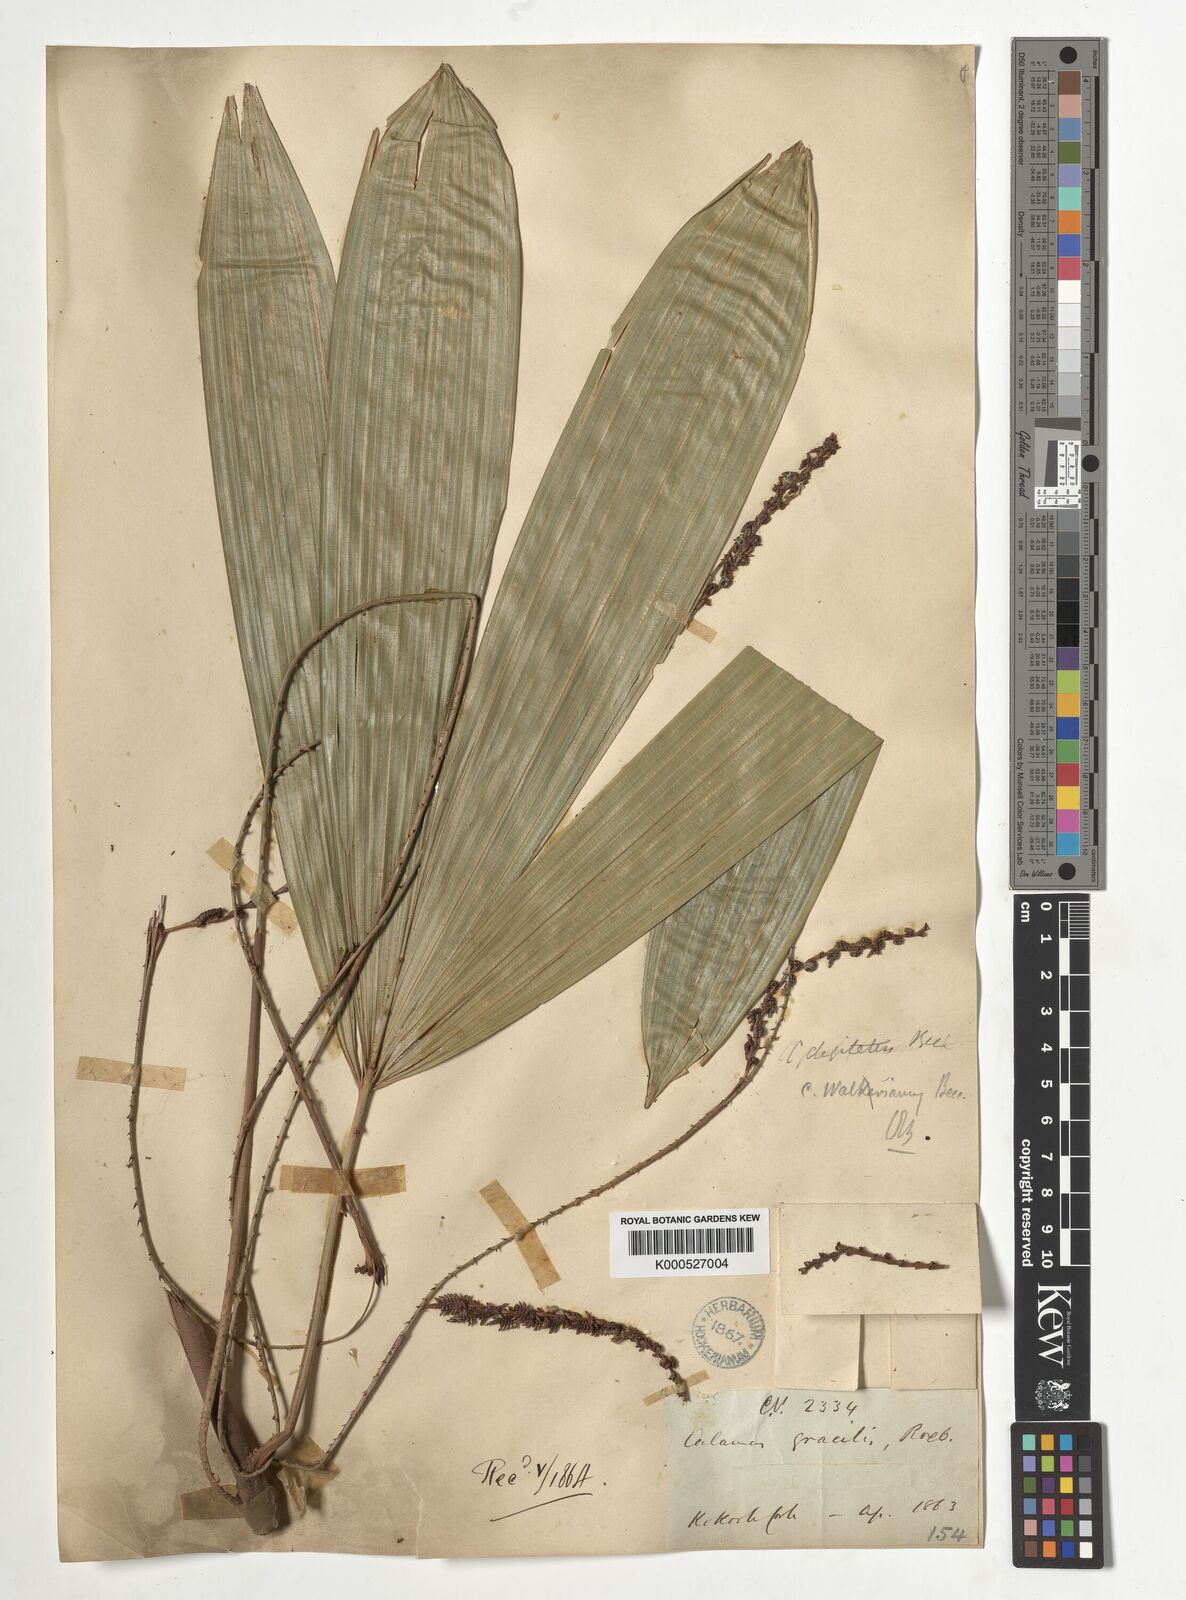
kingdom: Plantae
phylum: Tracheophyta
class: Liliopsida
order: Arecales
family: Arecaceae
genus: Calamus
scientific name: Calamus digitatus
